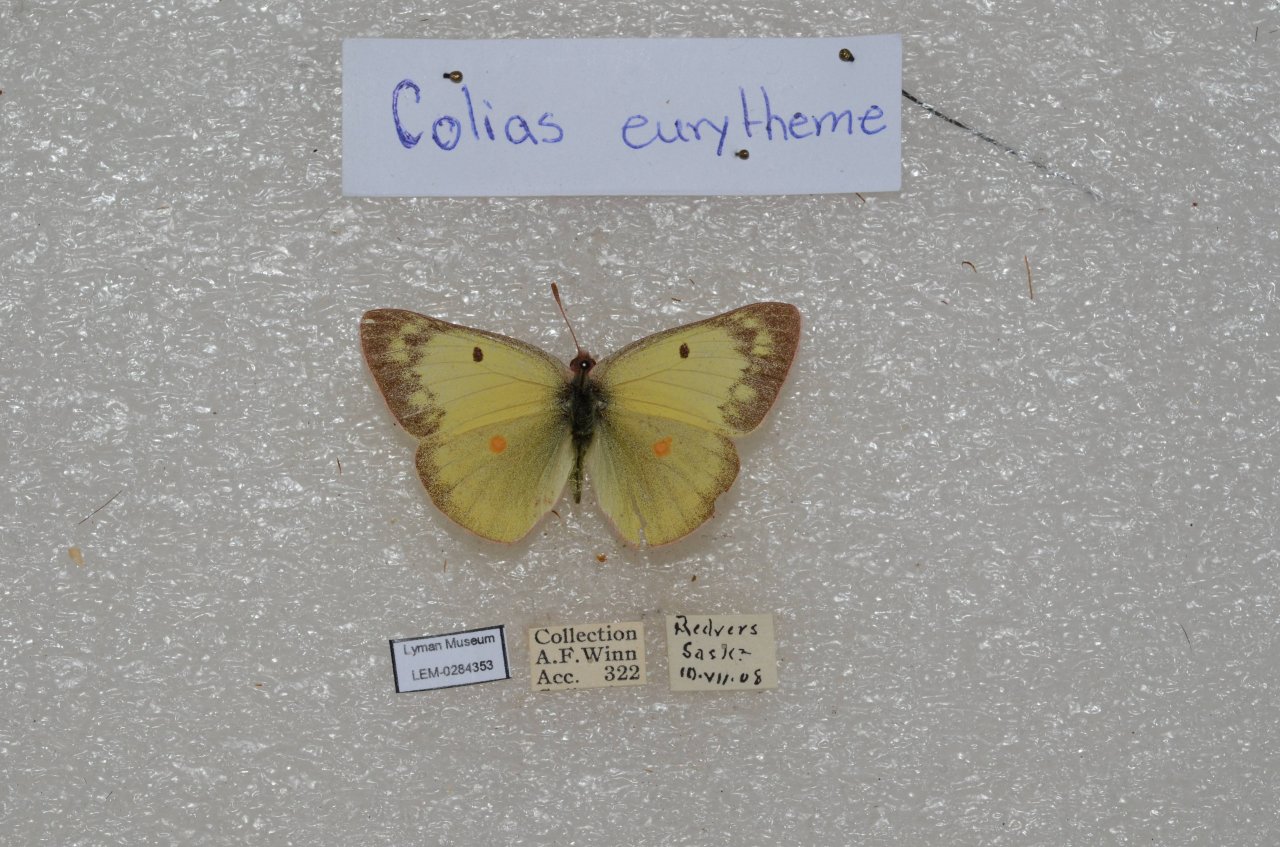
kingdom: Animalia
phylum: Arthropoda
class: Insecta
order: Lepidoptera
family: Pieridae
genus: Colias
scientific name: Colias eurytheme
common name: Orange Sulphur
